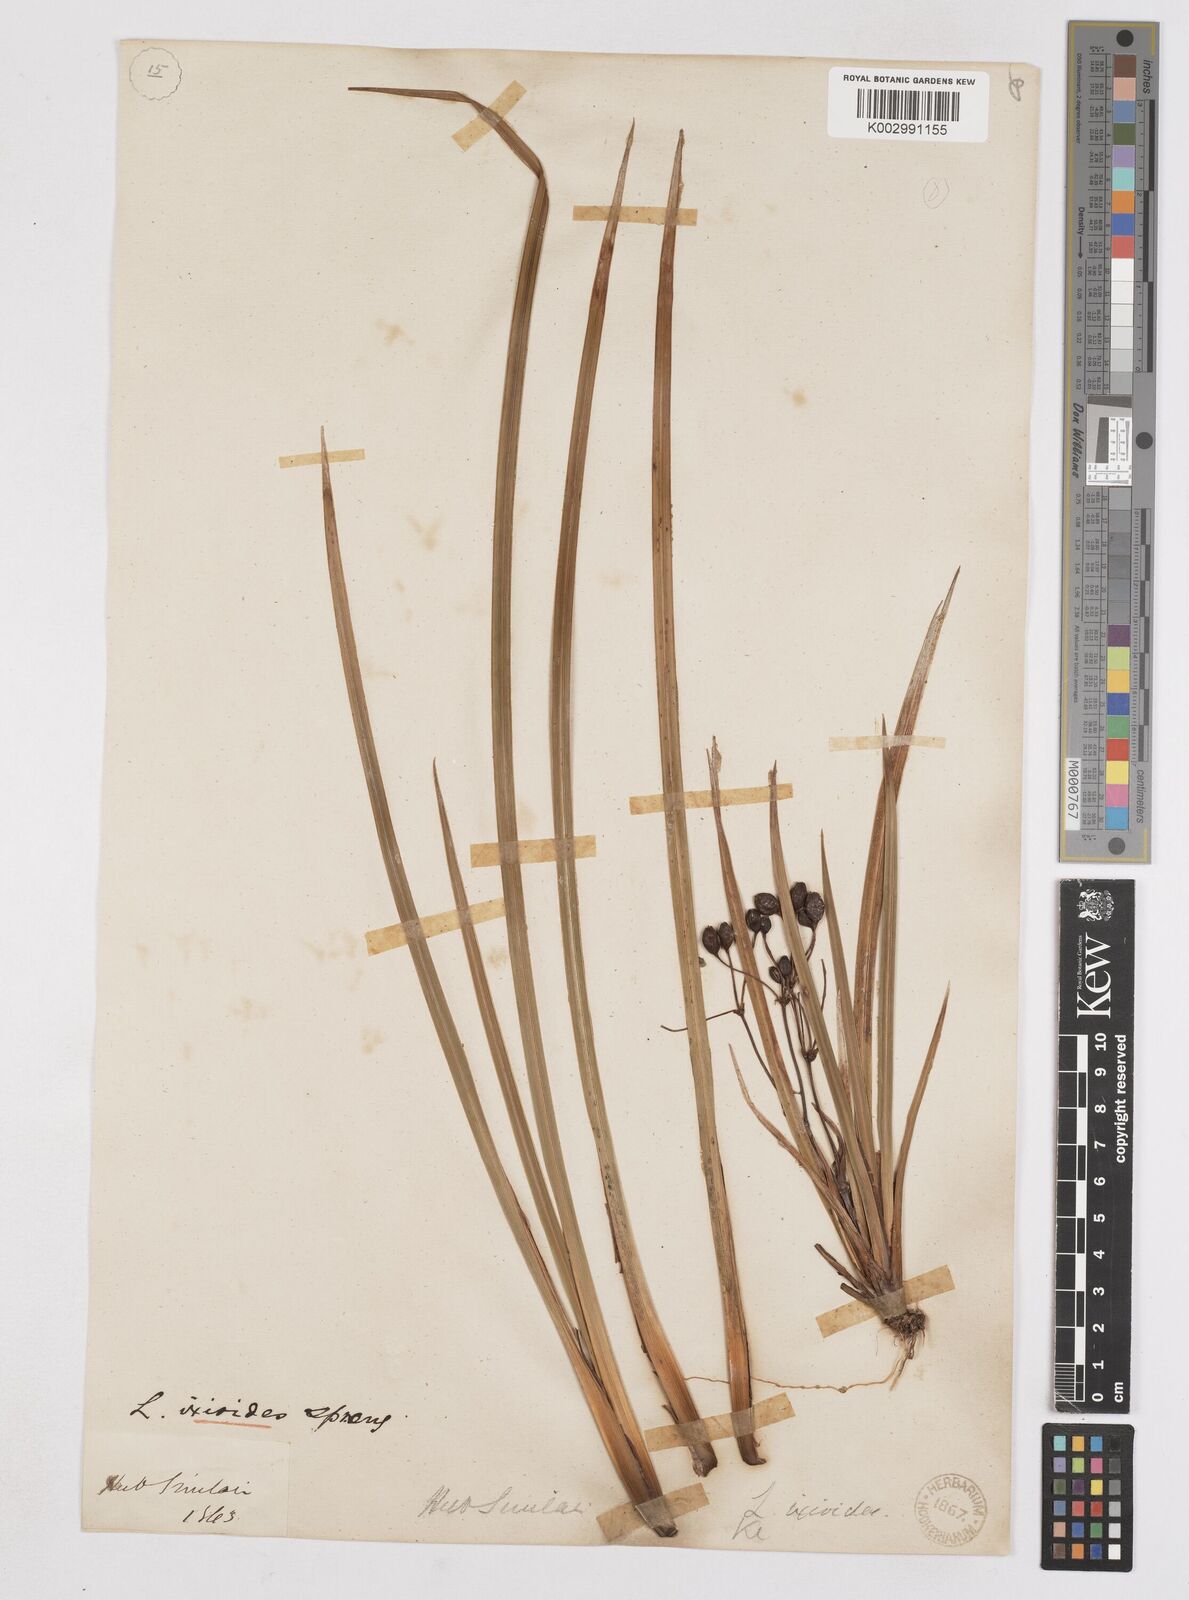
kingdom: Plantae
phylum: Tracheophyta
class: Liliopsida
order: Asparagales
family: Iridaceae
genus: Libertia
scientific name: Libertia peregrinans
